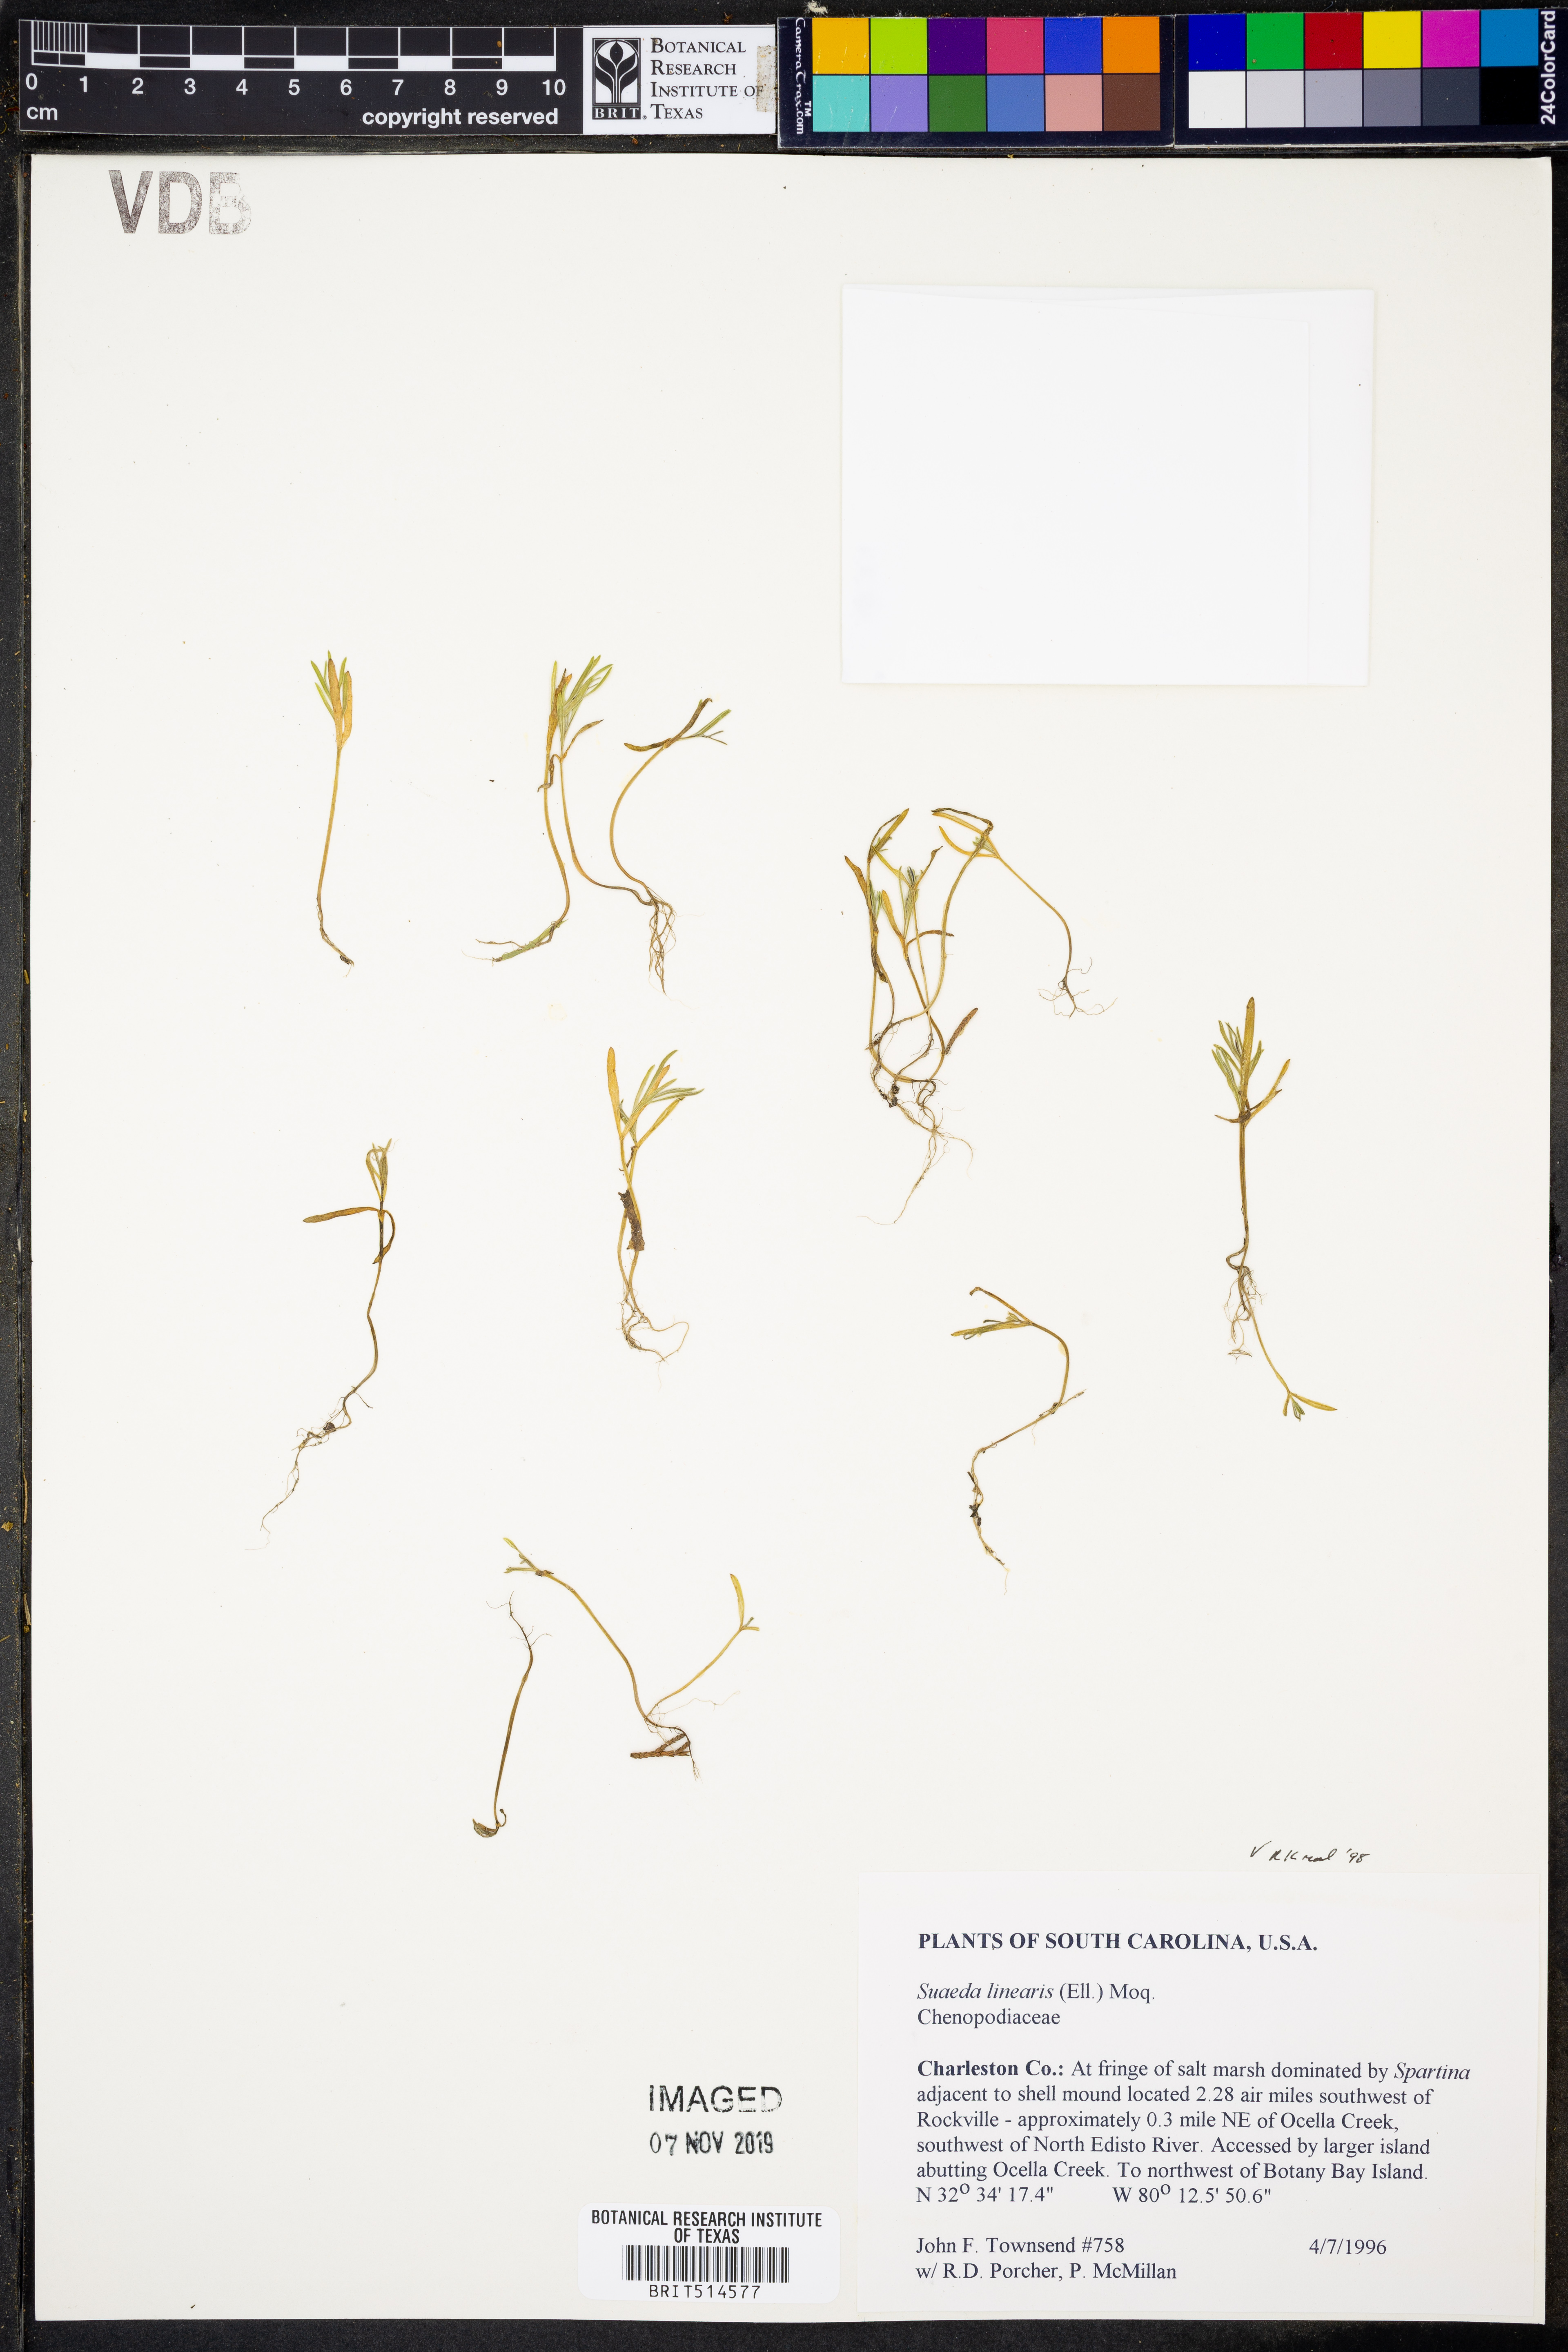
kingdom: Plantae
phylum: Tracheophyta
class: Magnoliopsida
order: Caryophyllales
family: Amaranthaceae
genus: Suaeda
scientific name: Suaeda linearis
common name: Annual seepweed
